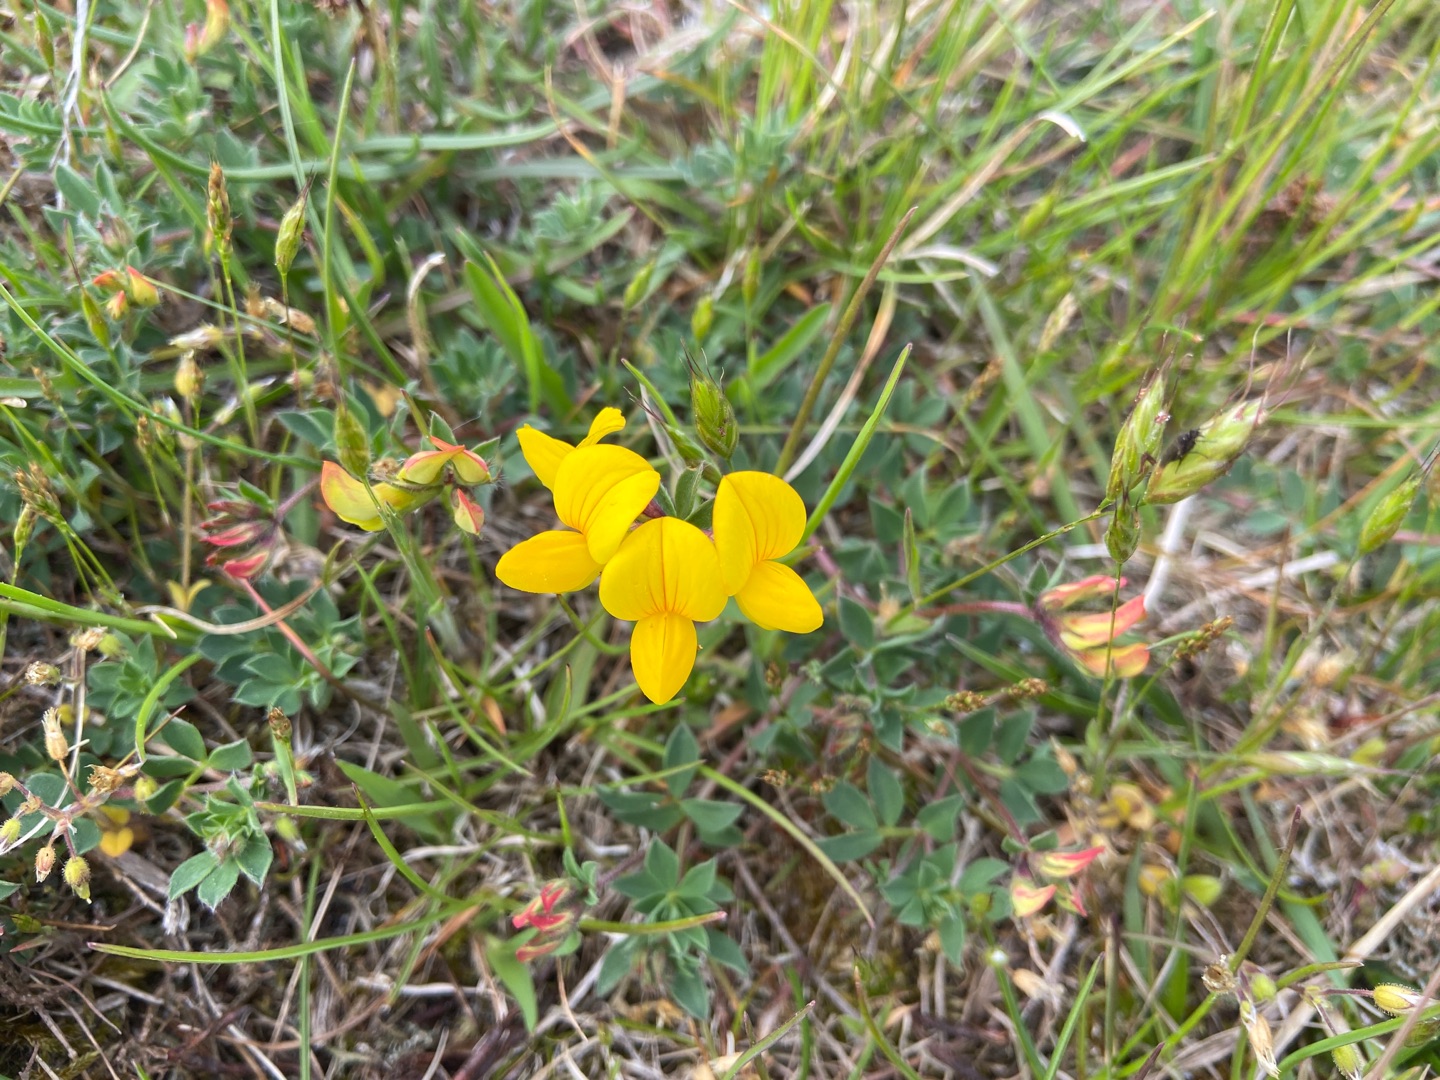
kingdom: Plantae
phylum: Tracheophyta
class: Magnoliopsida
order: Fabales
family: Fabaceae
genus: Lotus
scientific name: Lotus corniculatus
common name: Almindelig kællingetand
